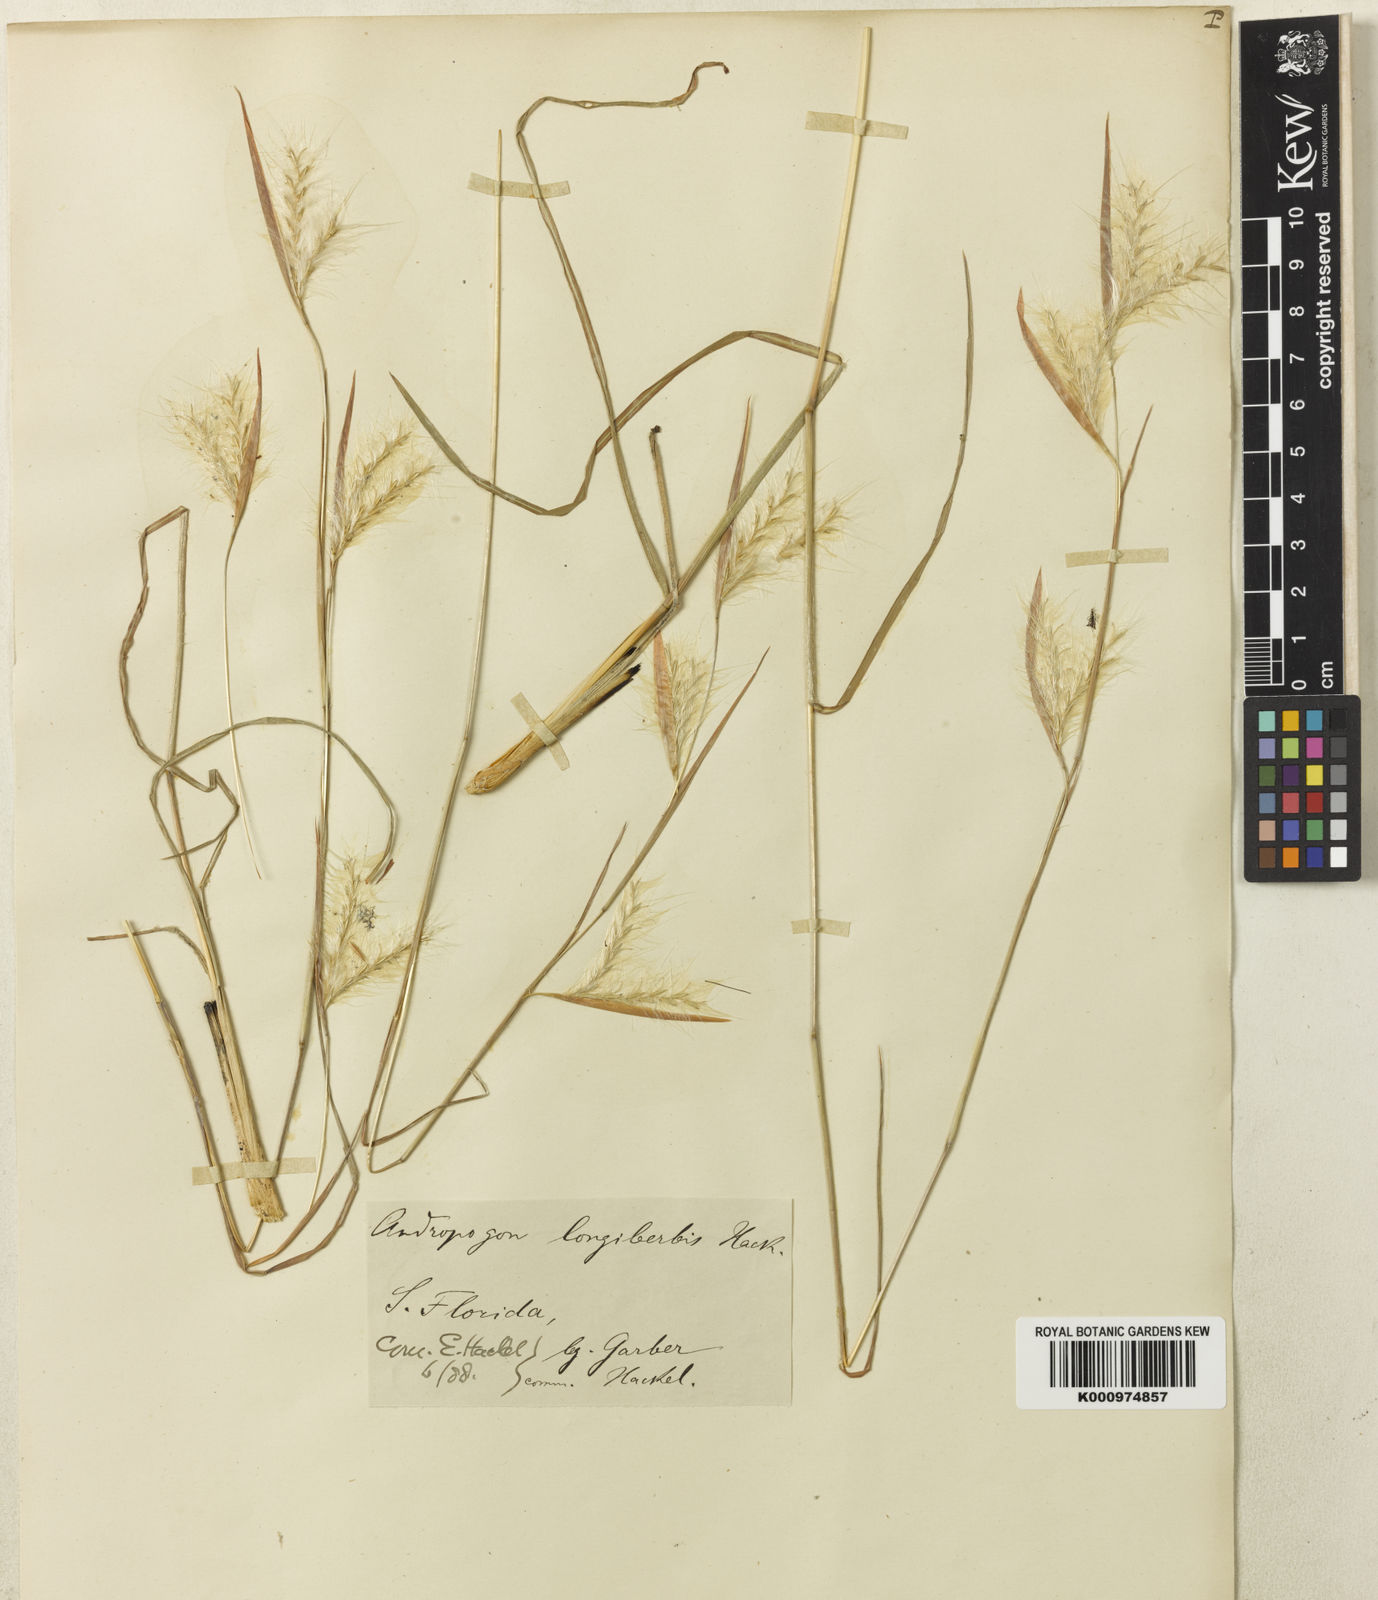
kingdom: Plantae
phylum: Tracheophyta
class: Liliopsida
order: Poales
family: Poaceae
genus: Andropogon
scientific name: Andropogon longiberbis
